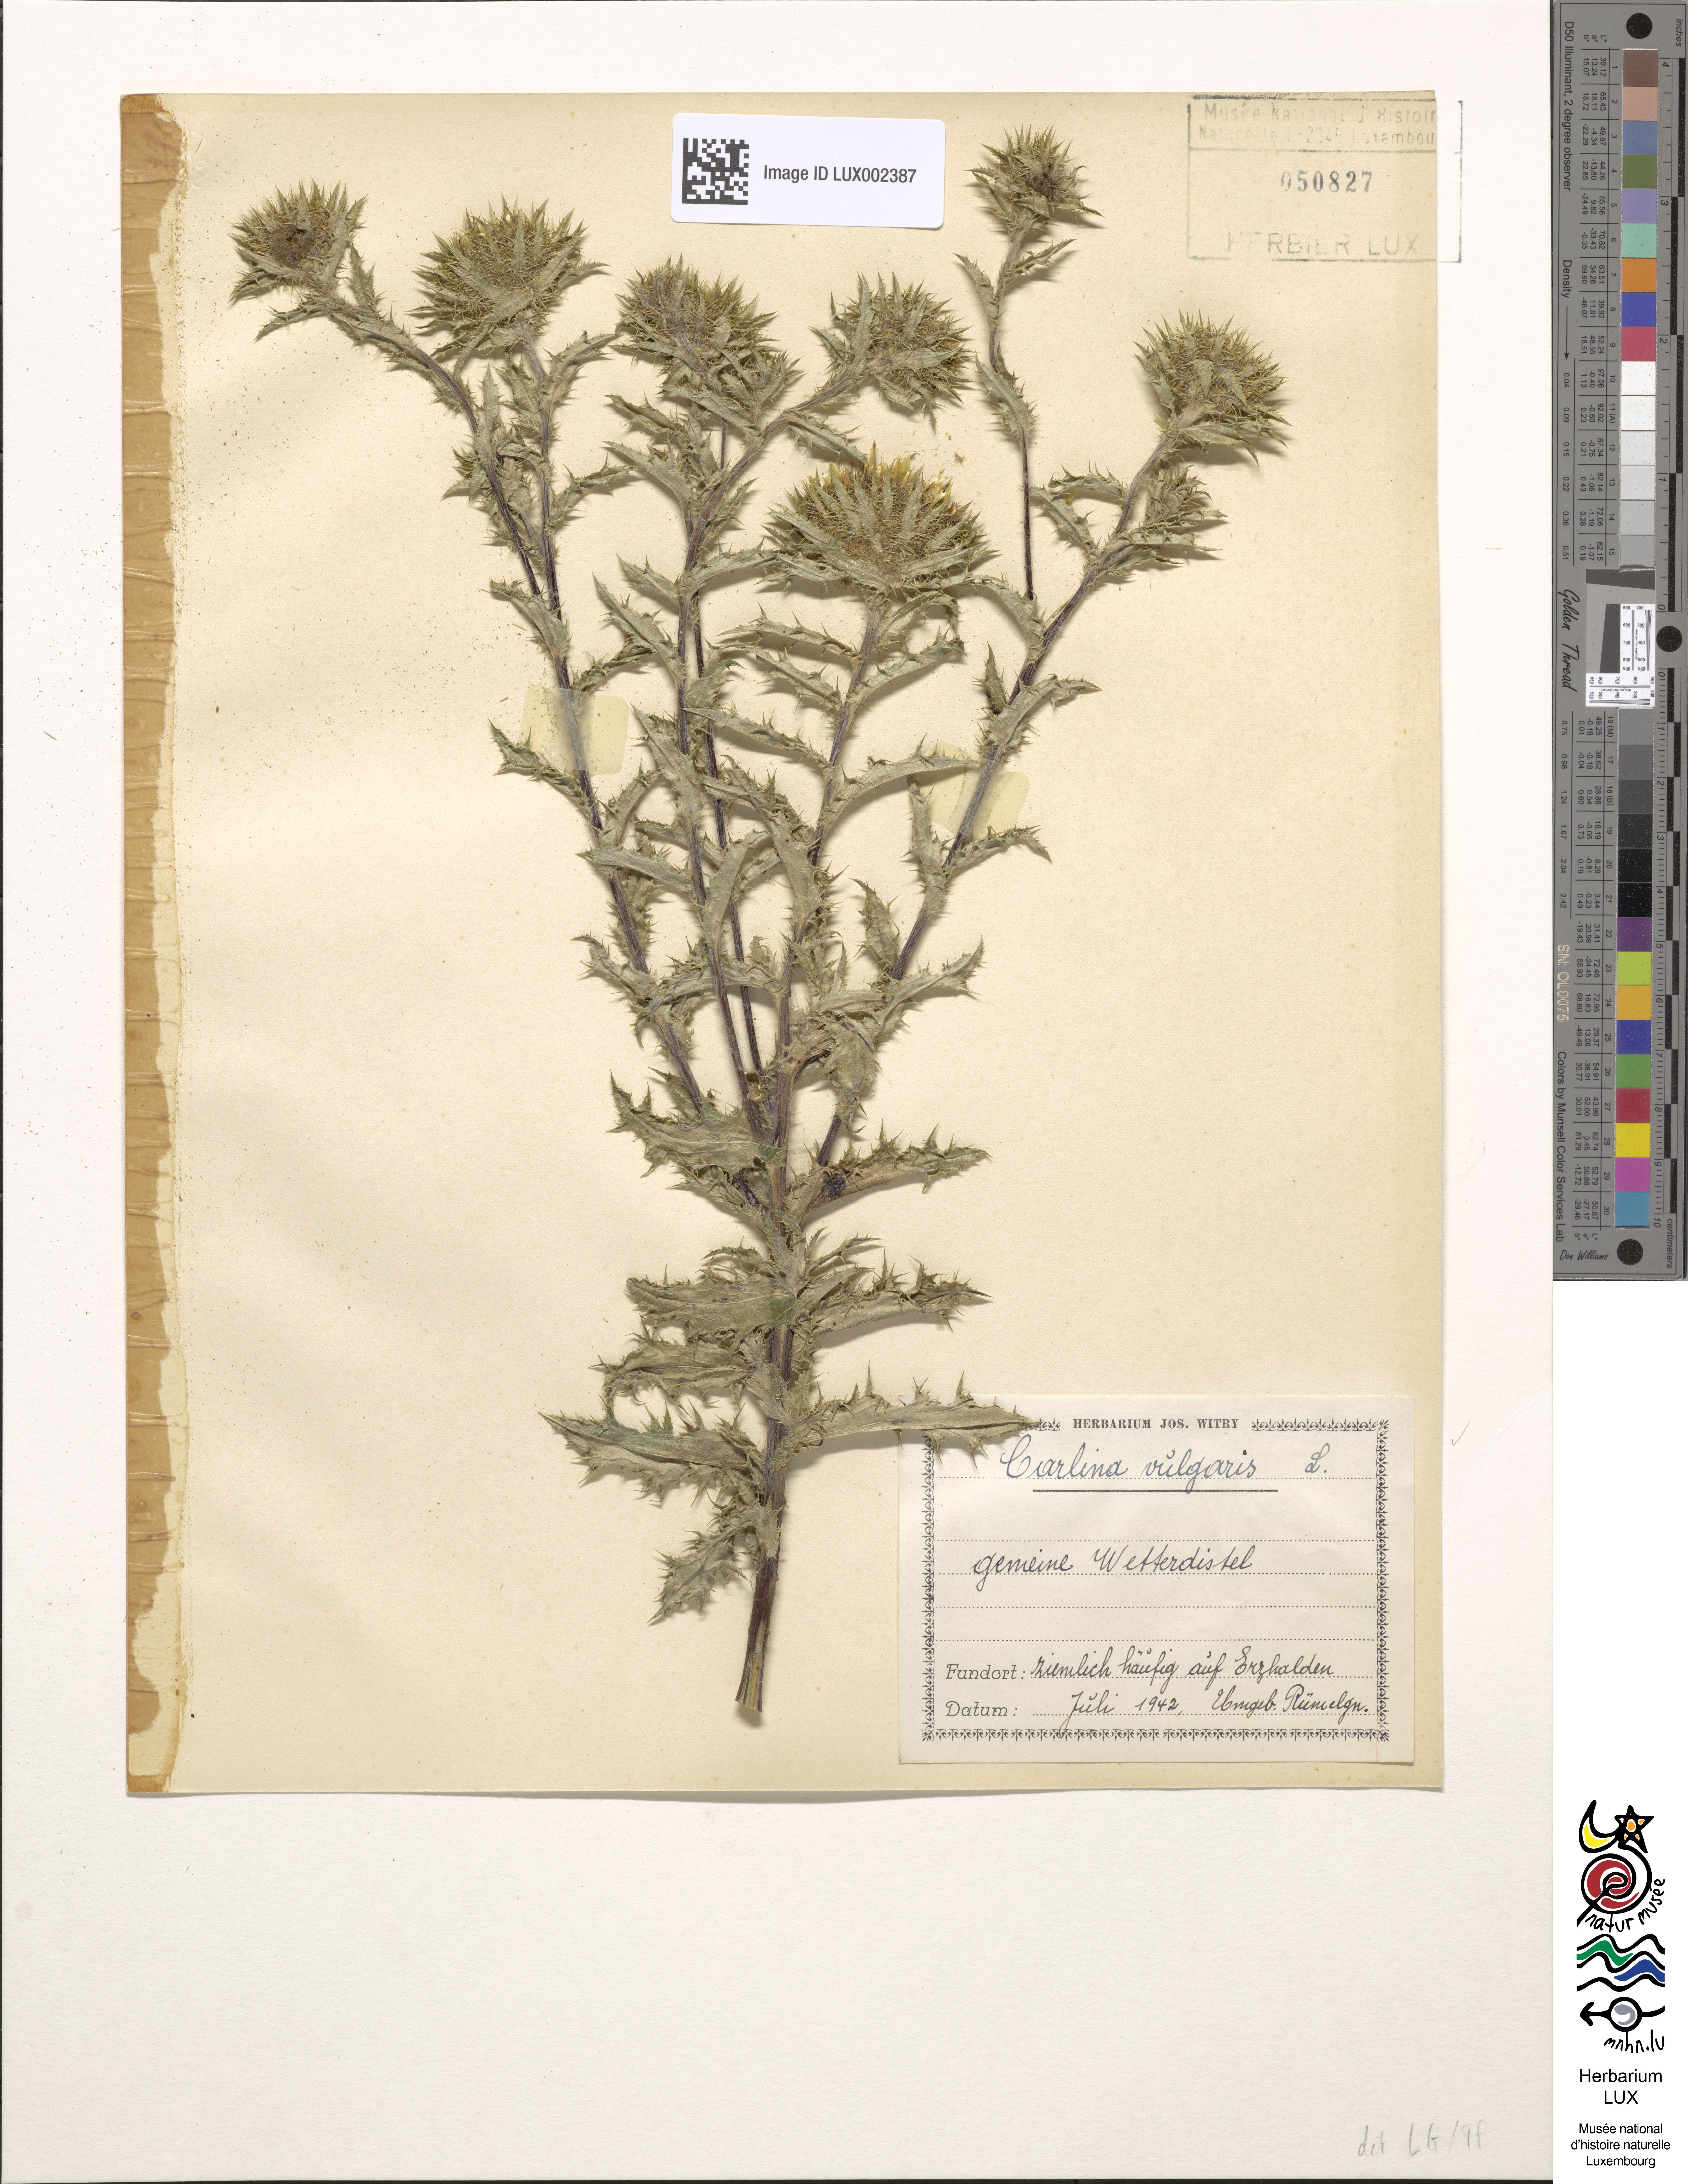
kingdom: Plantae
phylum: Tracheophyta
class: Magnoliopsida
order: Asterales
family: Asteraceae
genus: Carlina
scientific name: Carlina vulgaris
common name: Carline thistle
